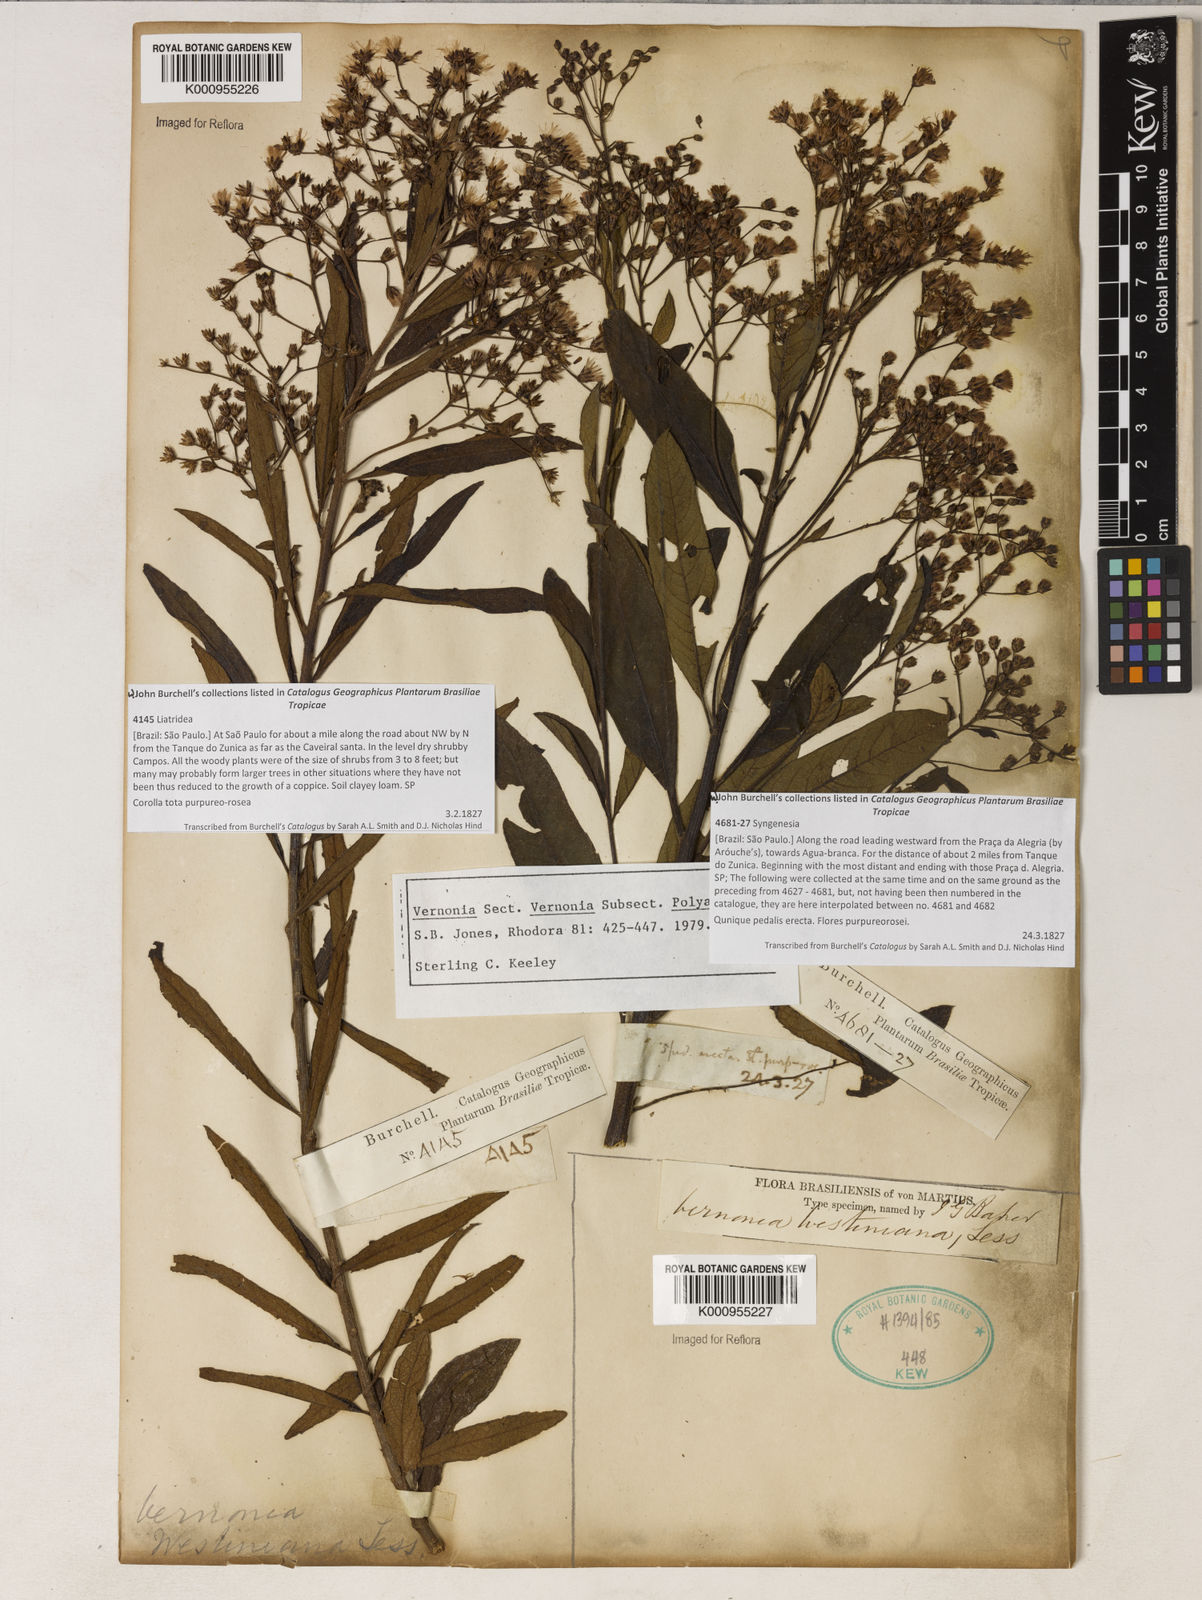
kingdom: Plantae
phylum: Tracheophyta
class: Magnoliopsida
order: Asterales
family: Asteraceae
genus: Vernonanthura
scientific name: Vernonanthura westiniana
